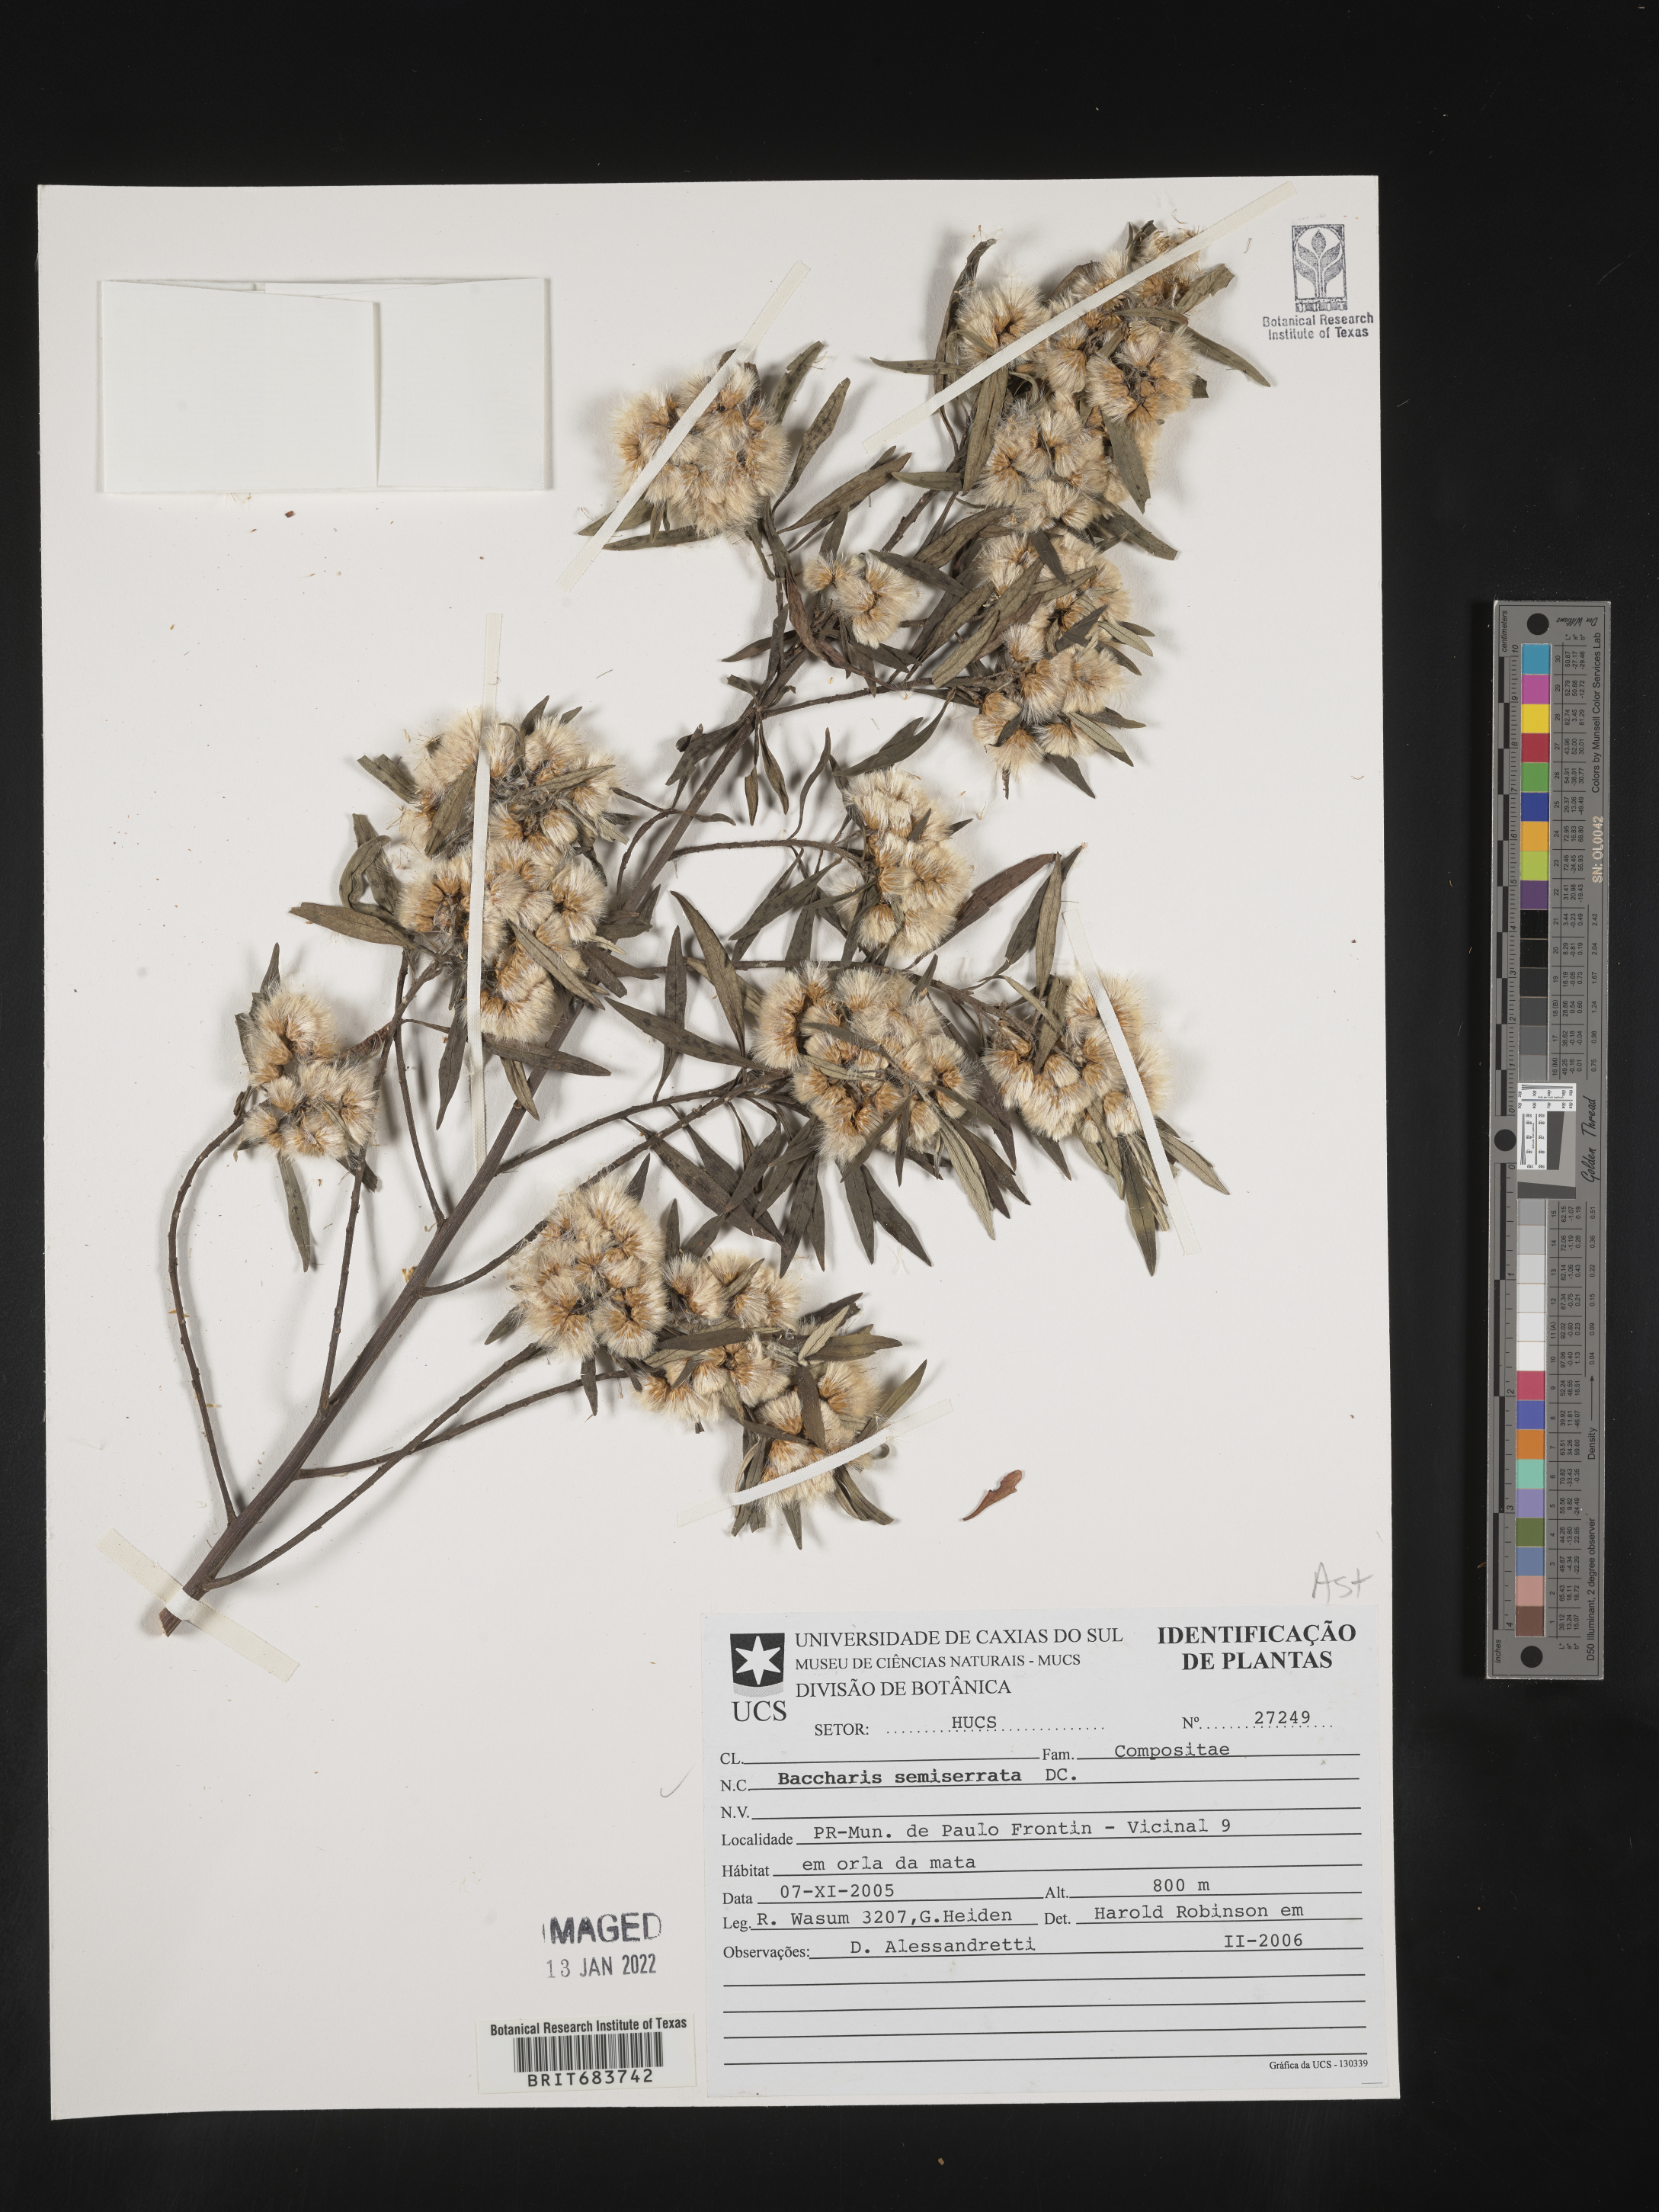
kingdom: Plantae
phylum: Tracheophyta
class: Magnoliopsida
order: Asterales
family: Asteraceae
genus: Baccharis
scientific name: Baccharis
